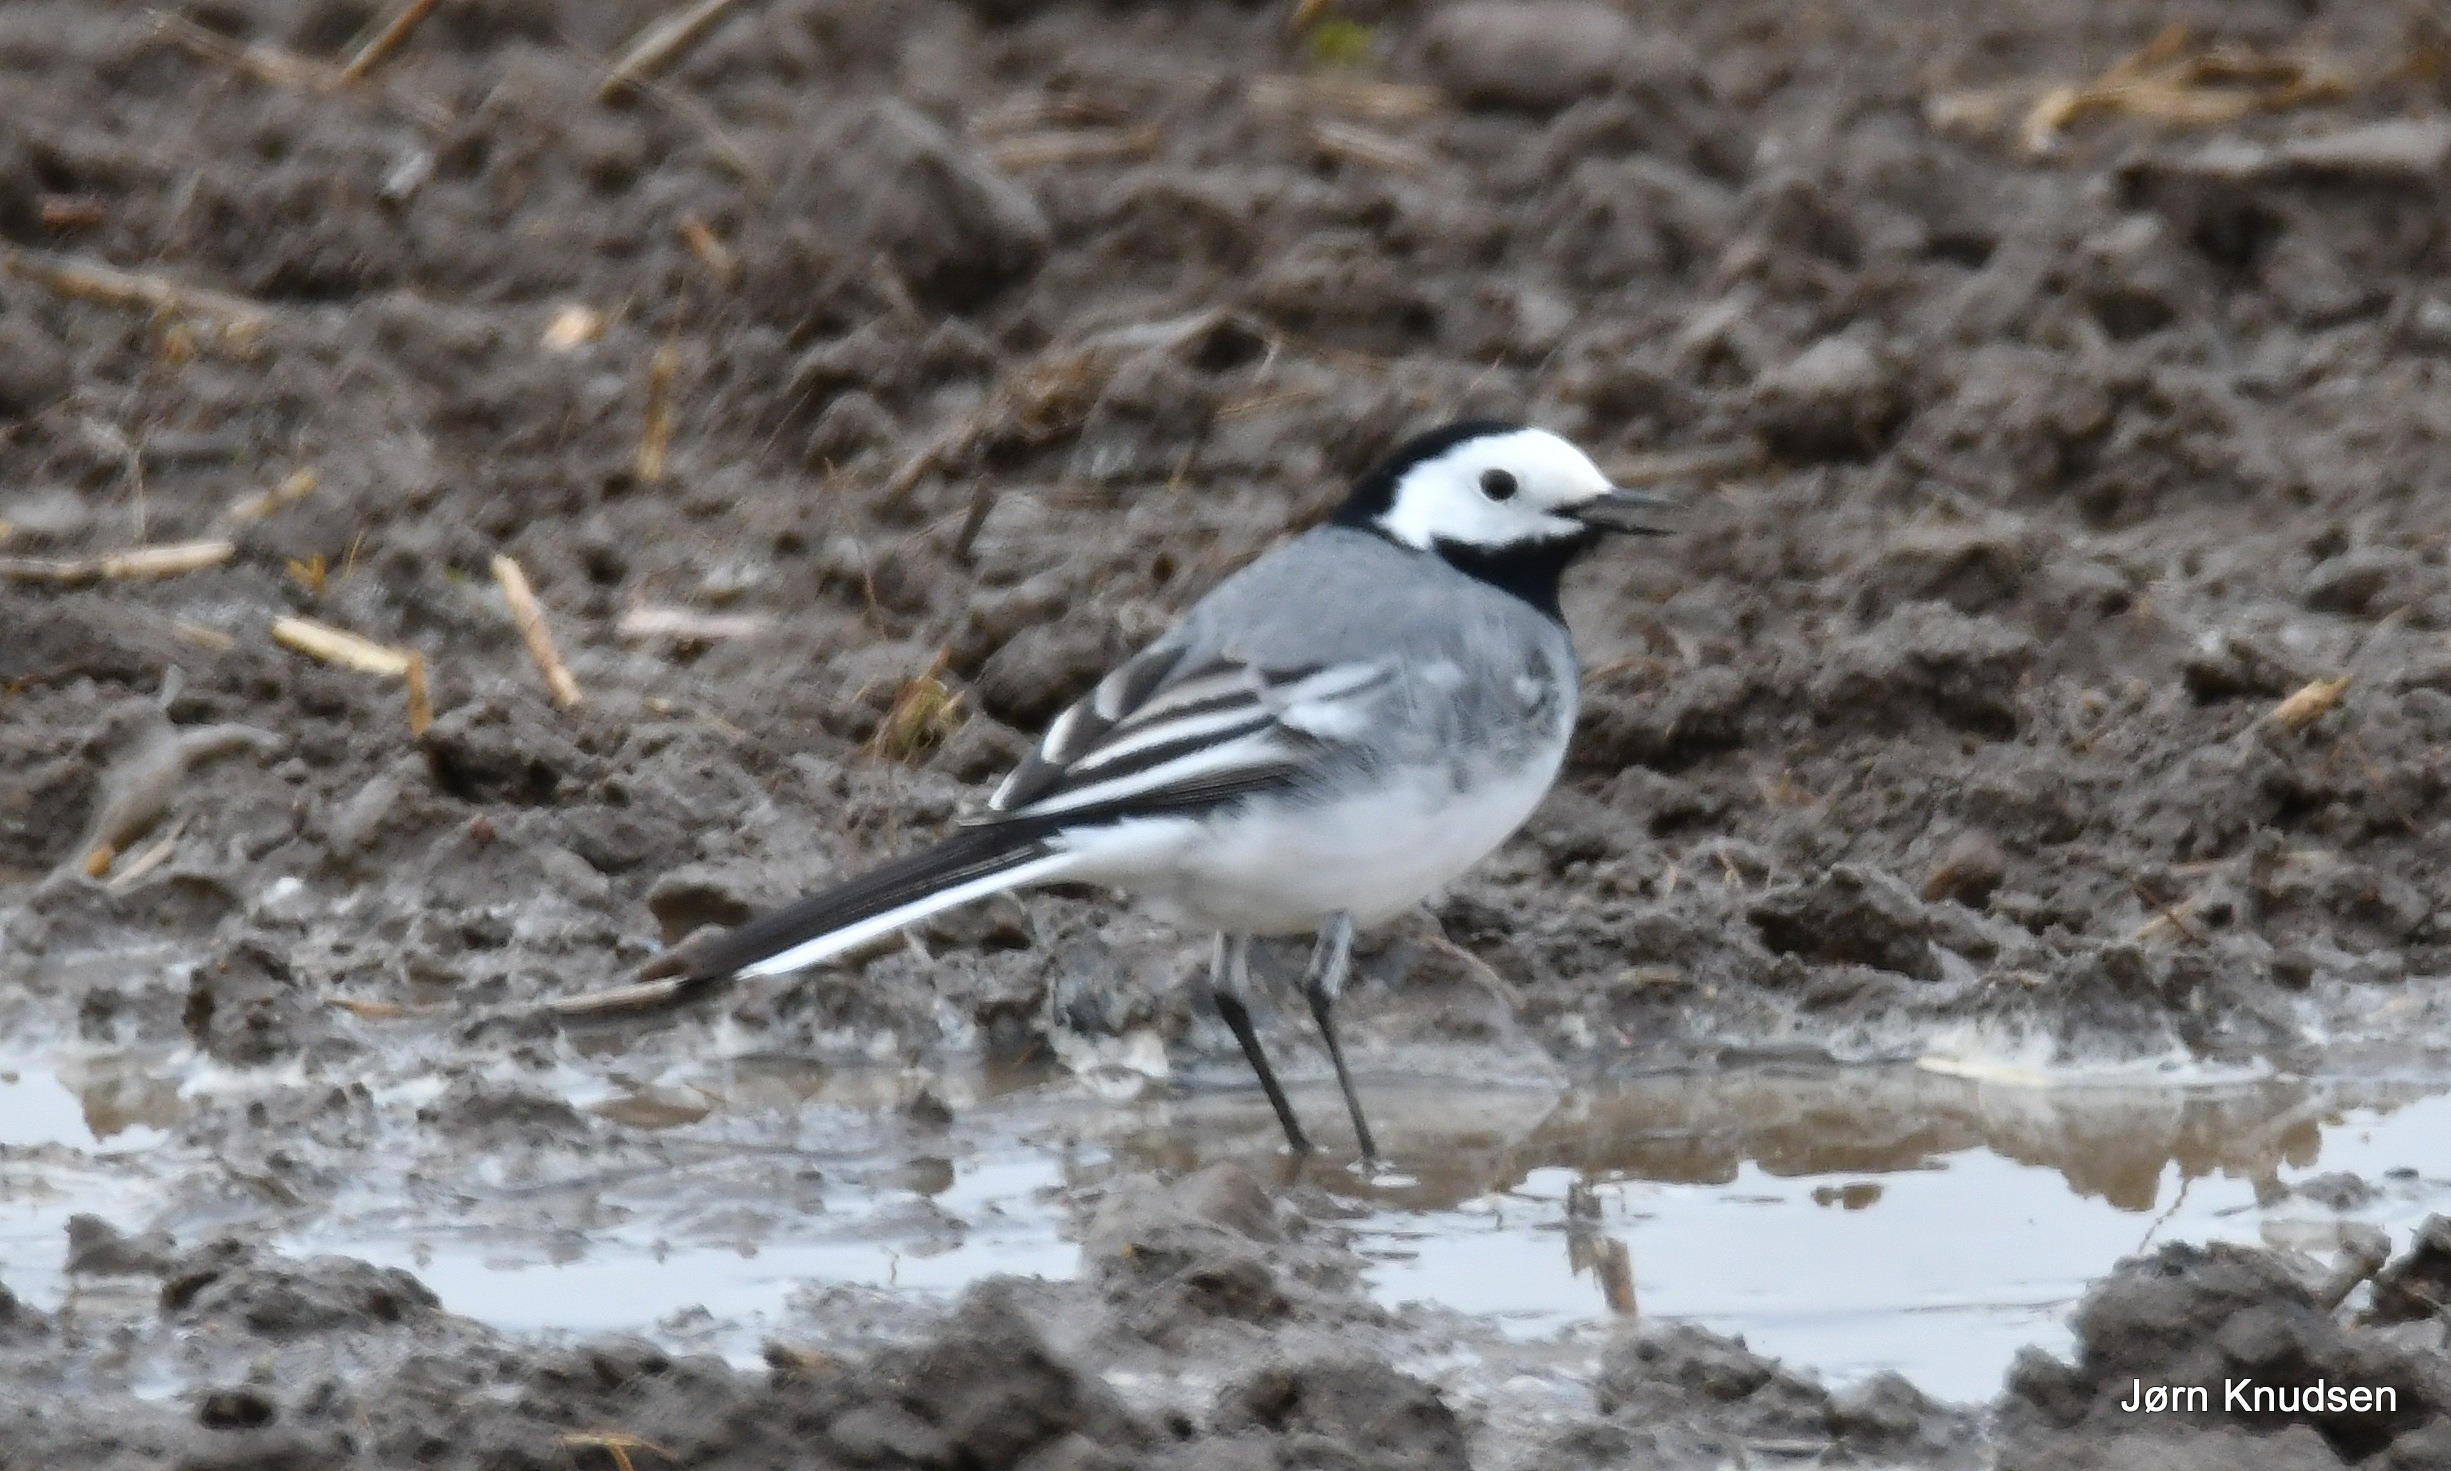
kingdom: Animalia
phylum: Chordata
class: Aves
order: Passeriformes
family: Motacillidae
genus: Motacilla
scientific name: Motacilla alba
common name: Hvid vipstjert
